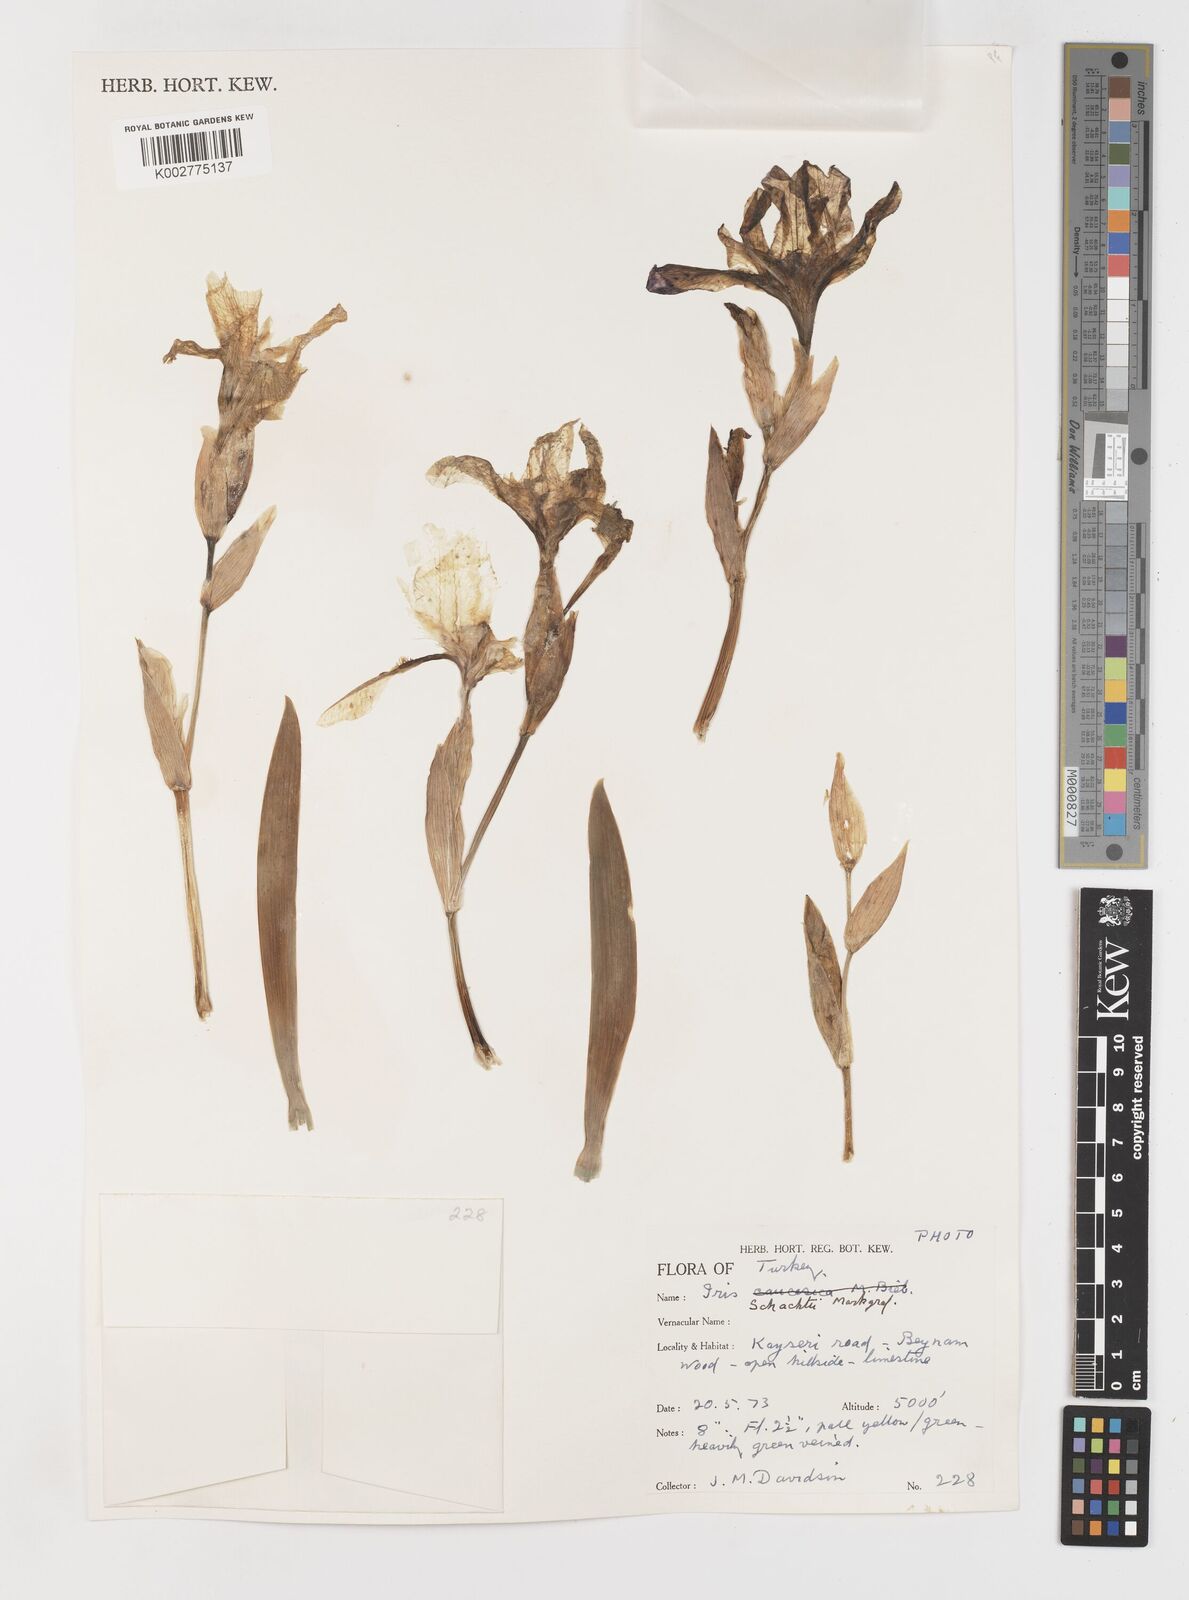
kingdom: Plantae
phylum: Tracheophyta
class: Liliopsida
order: Asparagales
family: Iridaceae
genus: Iris
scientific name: Iris schachtii
